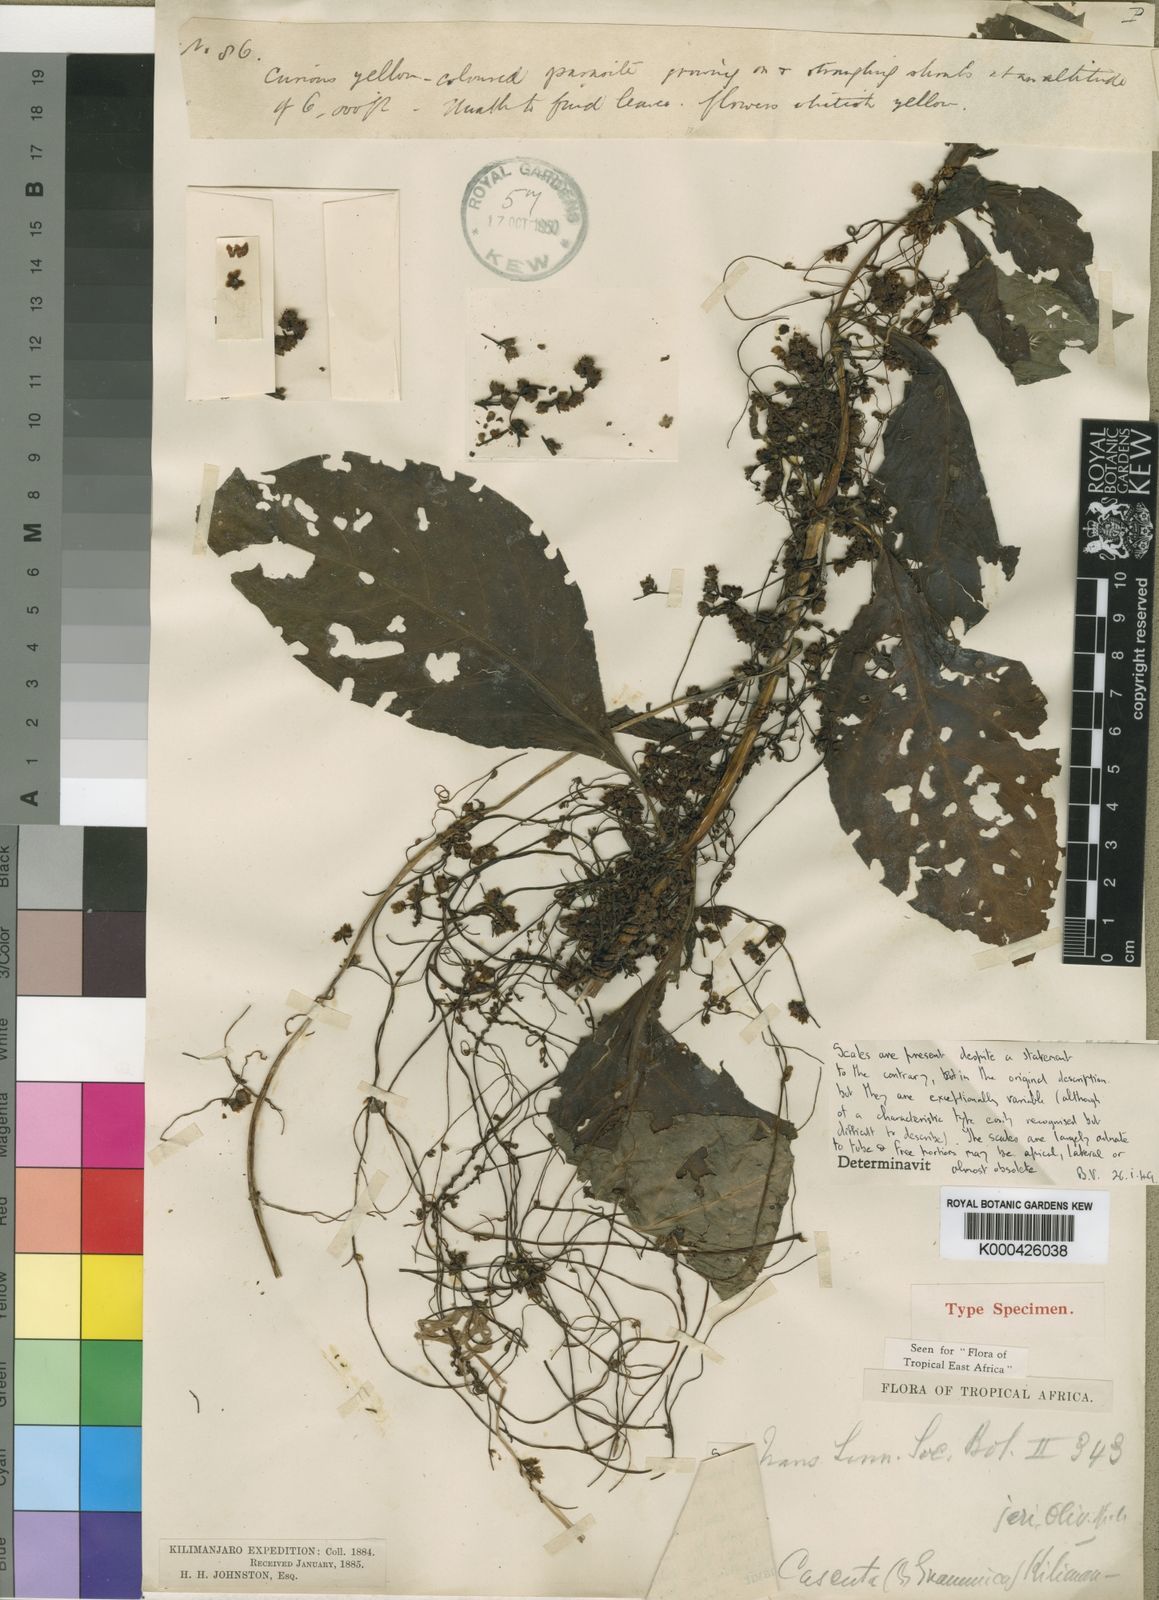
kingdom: Plantae
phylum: Tracheophyta
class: Magnoliopsida
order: Solanales
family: Convolvulaceae
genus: Cuscuta
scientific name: Cuscuta kilimanjari
